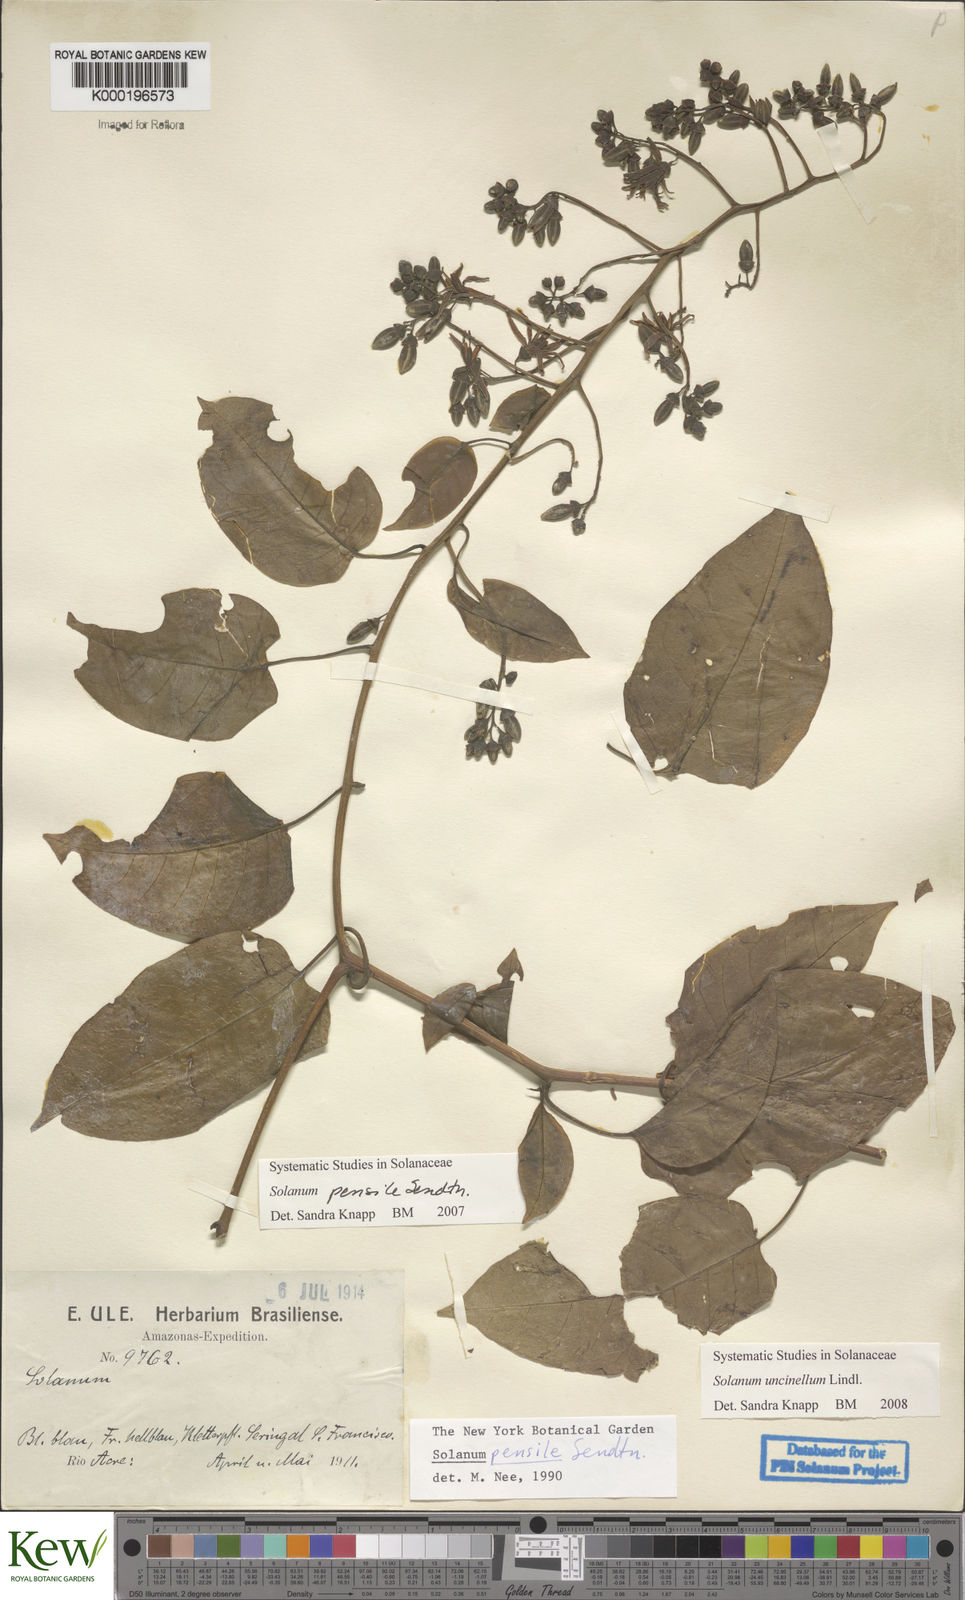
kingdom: Plantae
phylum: Tracheophyta
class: Magnoliopsida
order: Solanales
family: Solanaceae
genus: Solanum
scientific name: Solanum uncinellum
